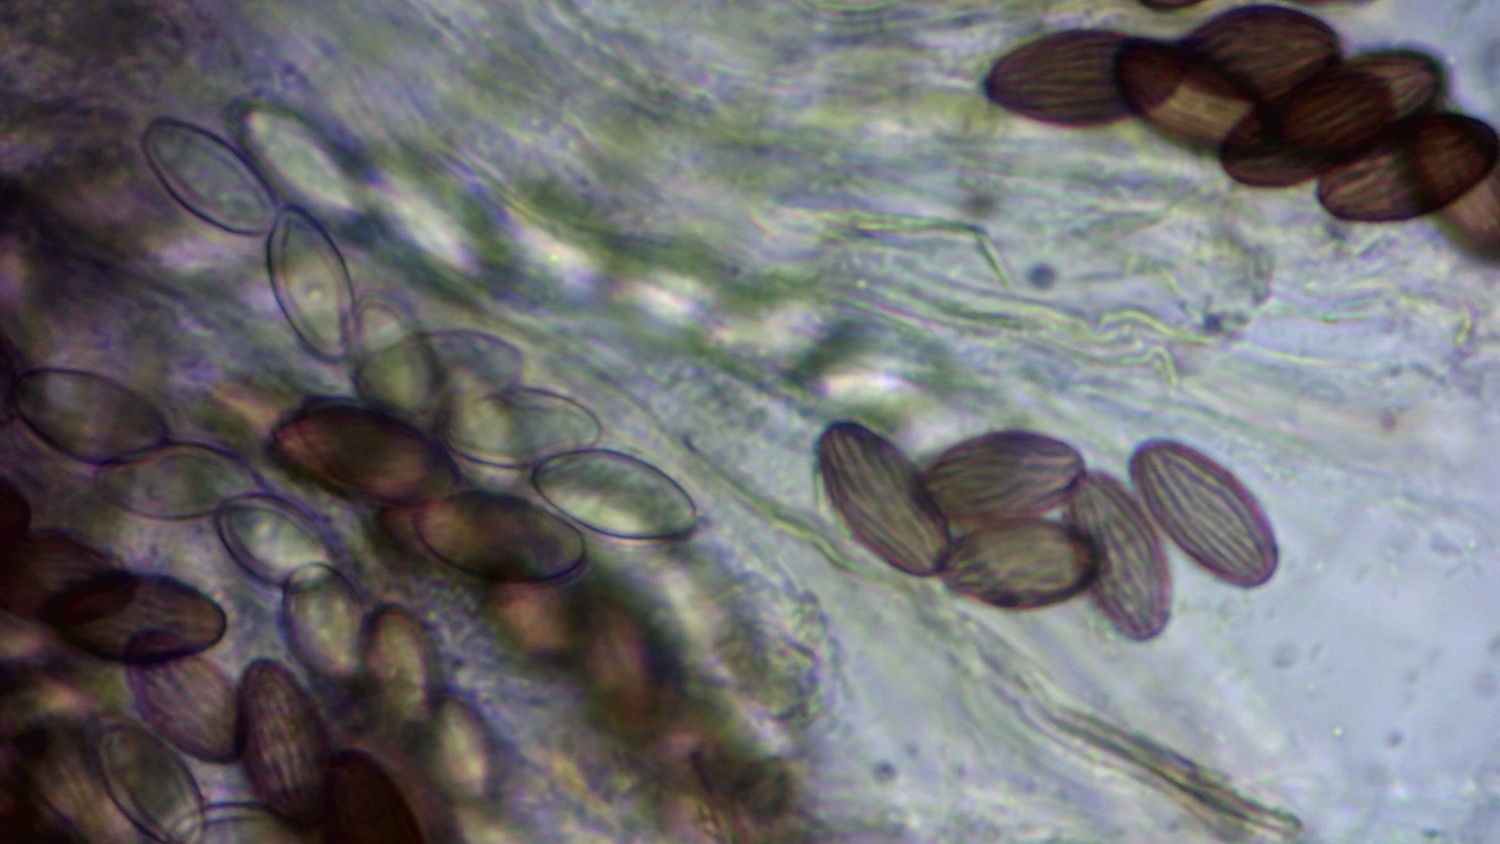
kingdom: Fungi
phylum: Ascomycota
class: Pezizomycetes
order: Pezizales
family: Ascobolaceae
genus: Ascobolus
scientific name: Ascobolus
